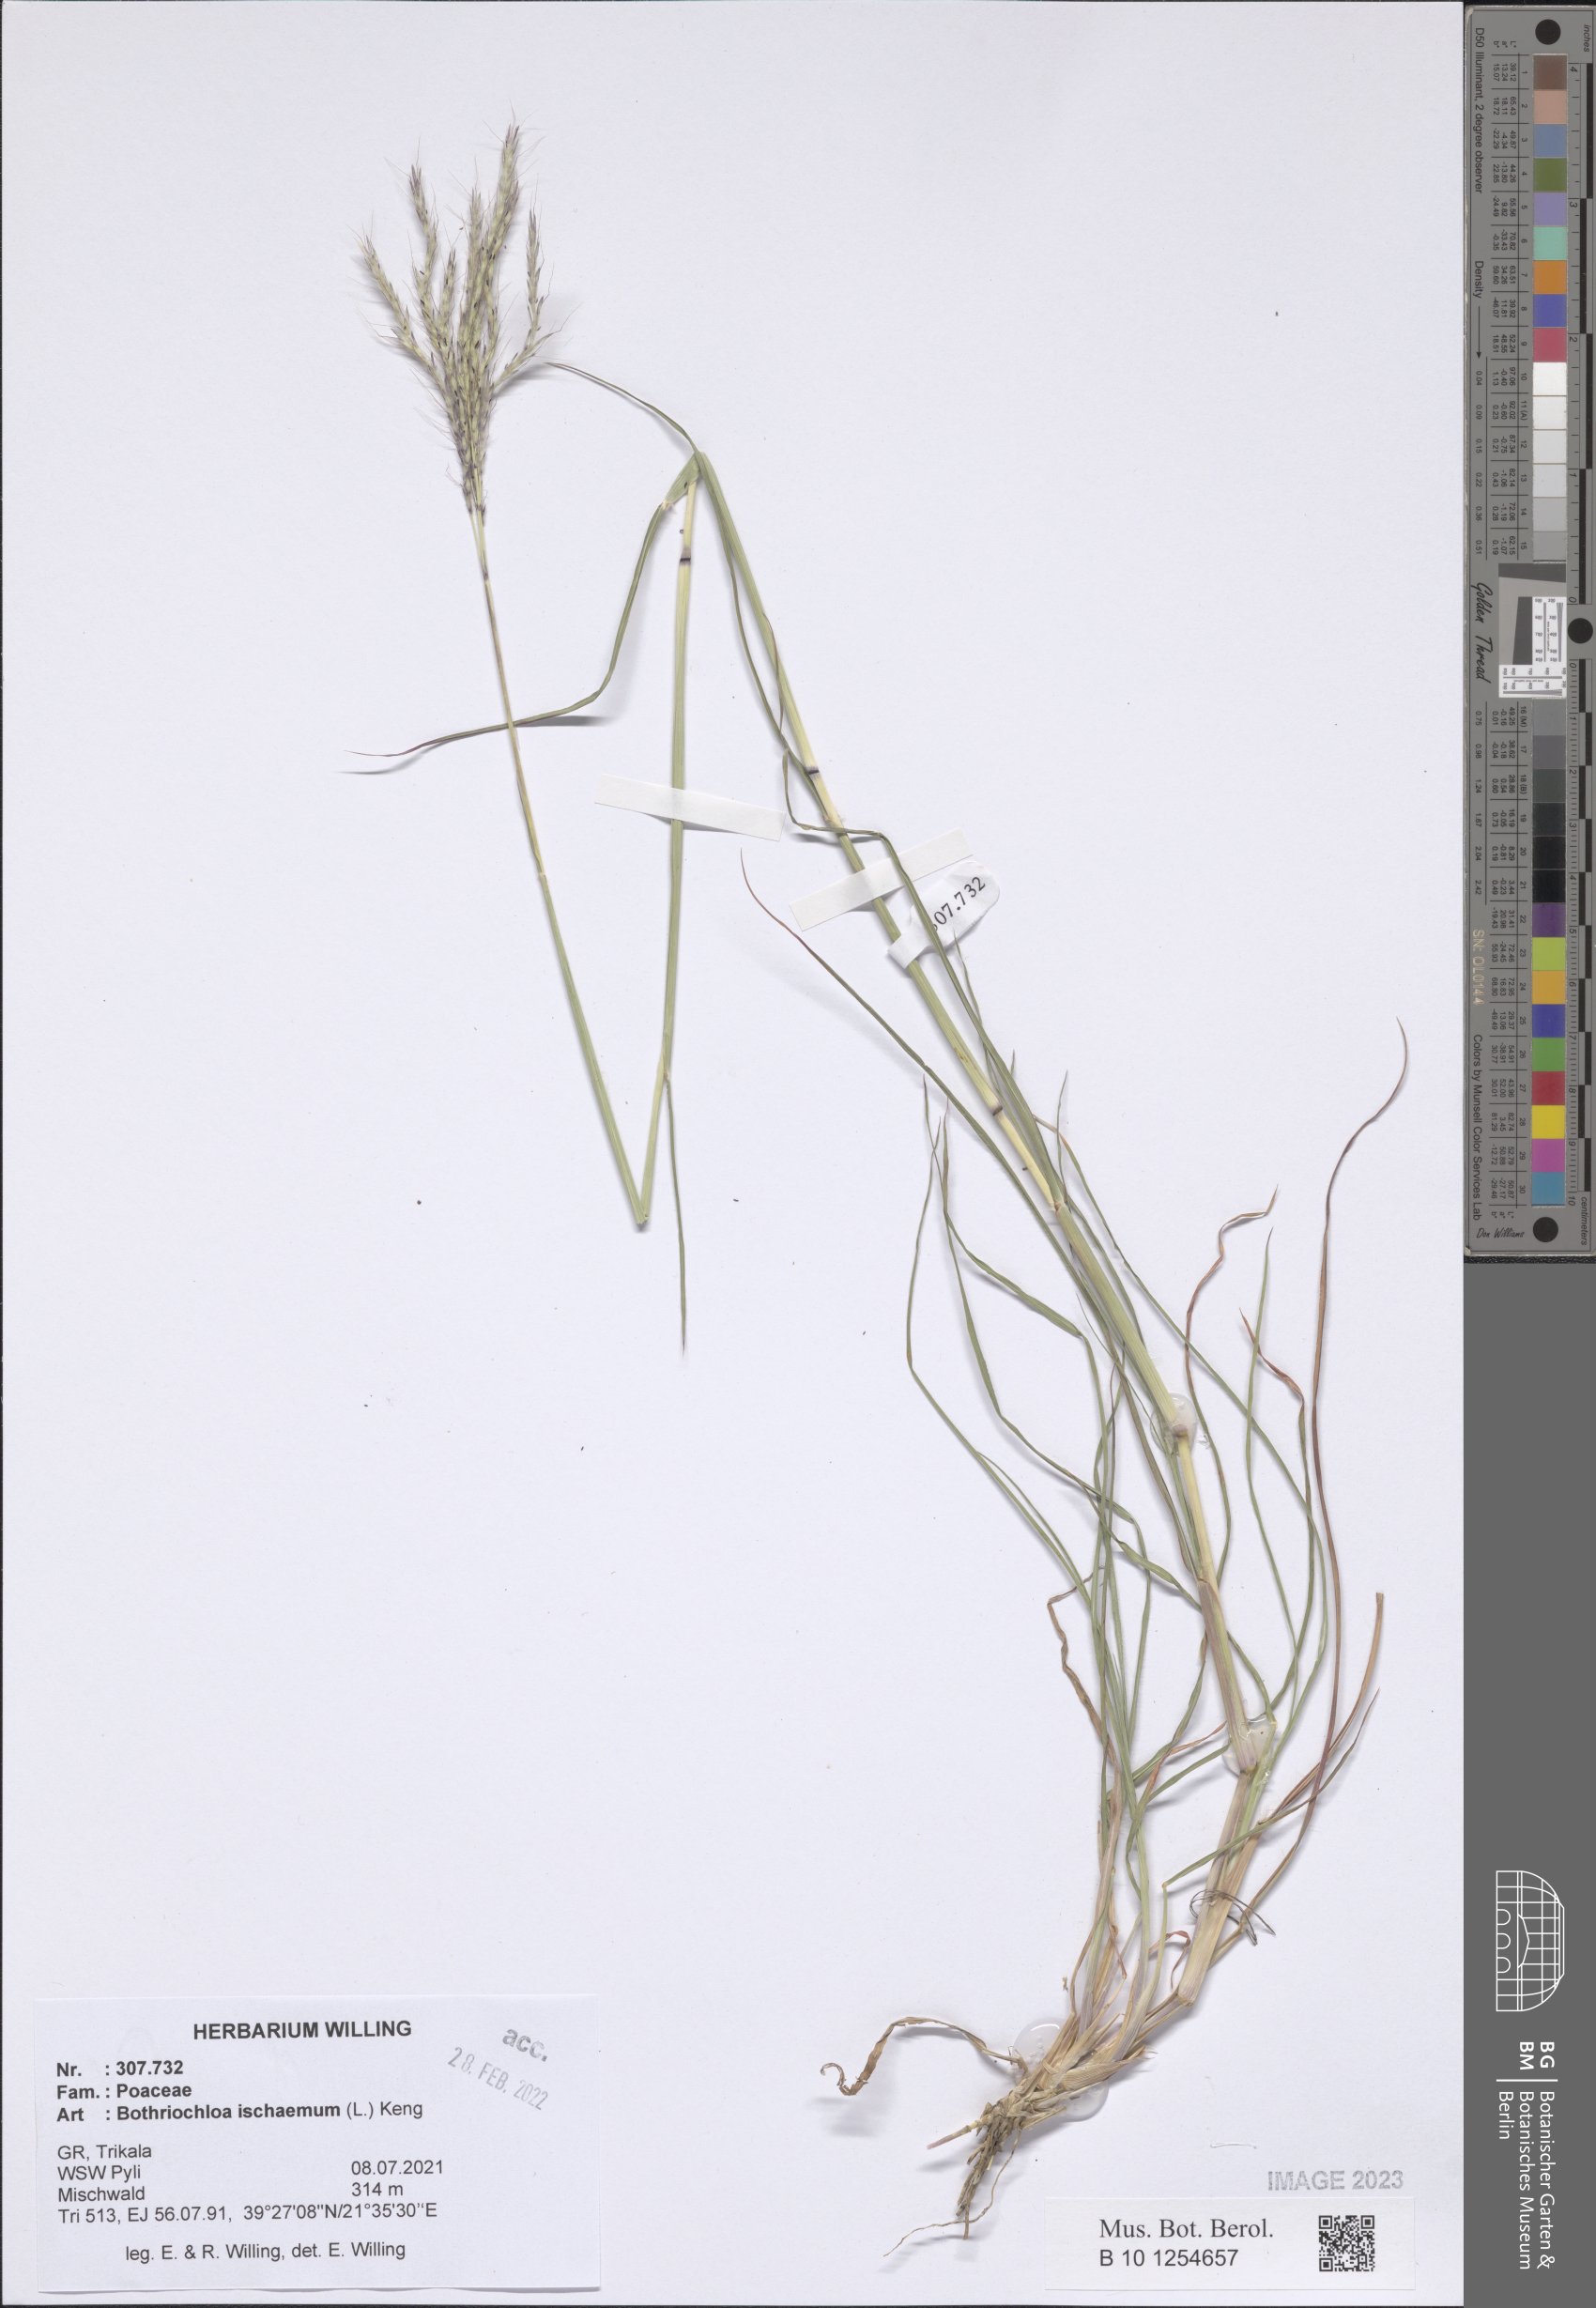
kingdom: Plantae
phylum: Tracheophyta
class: Liliopsida
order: Poales
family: Poaceae
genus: Bothriochloa
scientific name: Bothriochloa ischaemum
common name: Yellow bluestem
